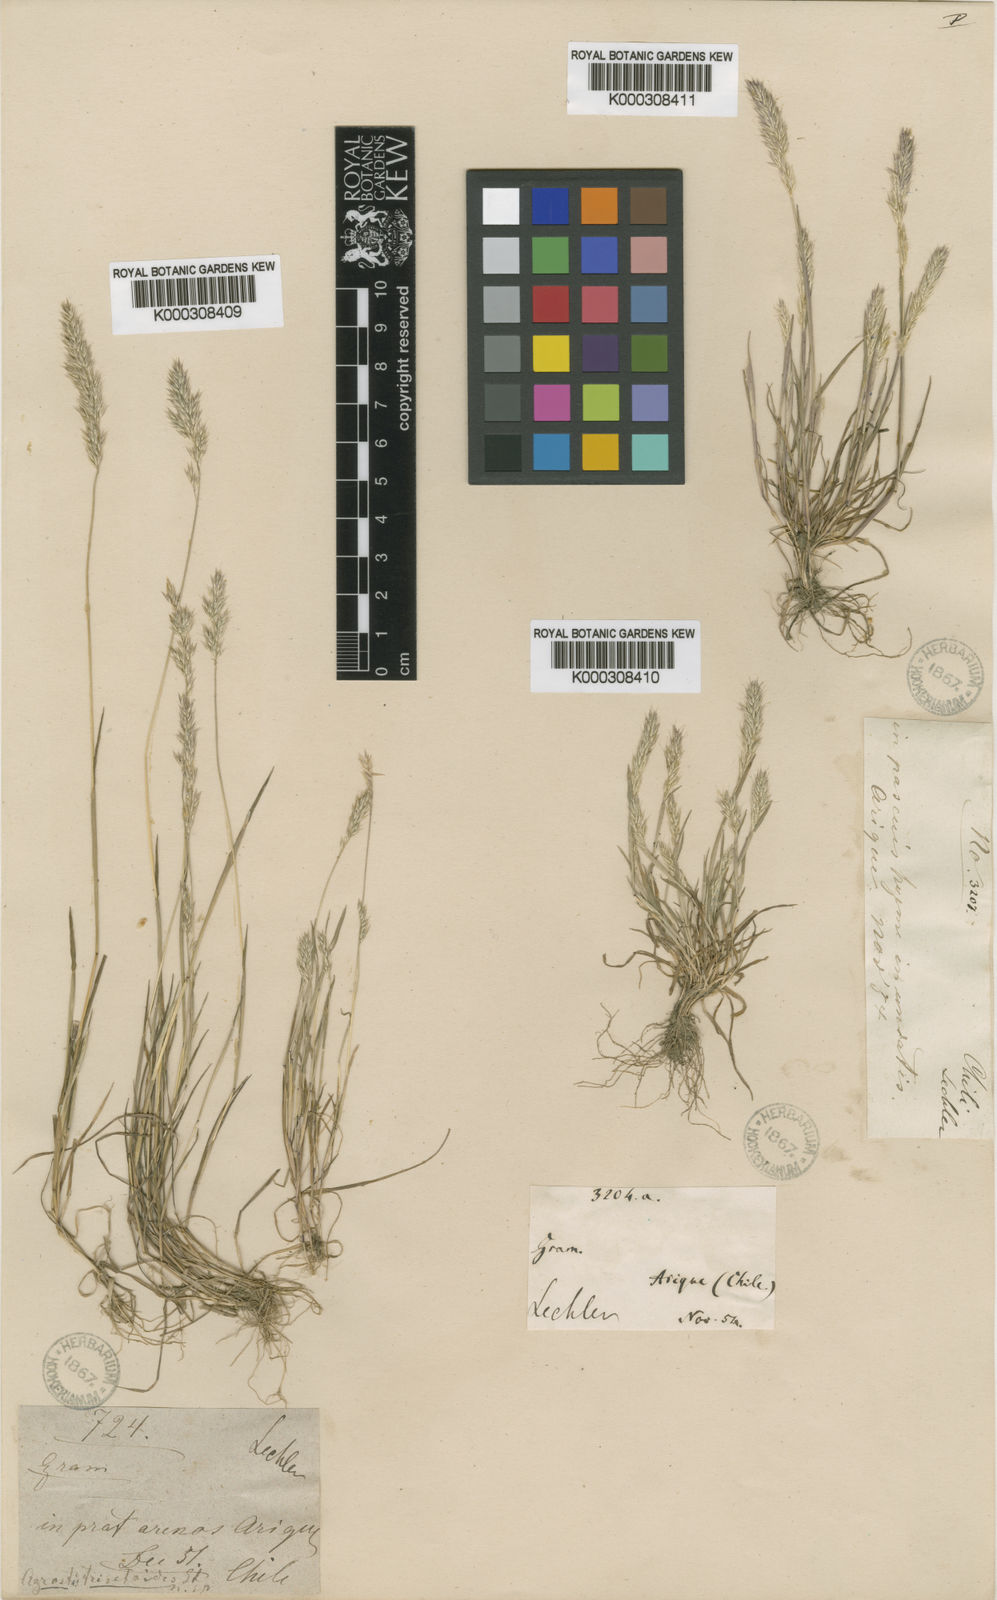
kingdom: Plantae
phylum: Tracheophyta
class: Liliopsida
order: Poales
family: Poaceae
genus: Agrostis
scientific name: Agrostis trisetoides
